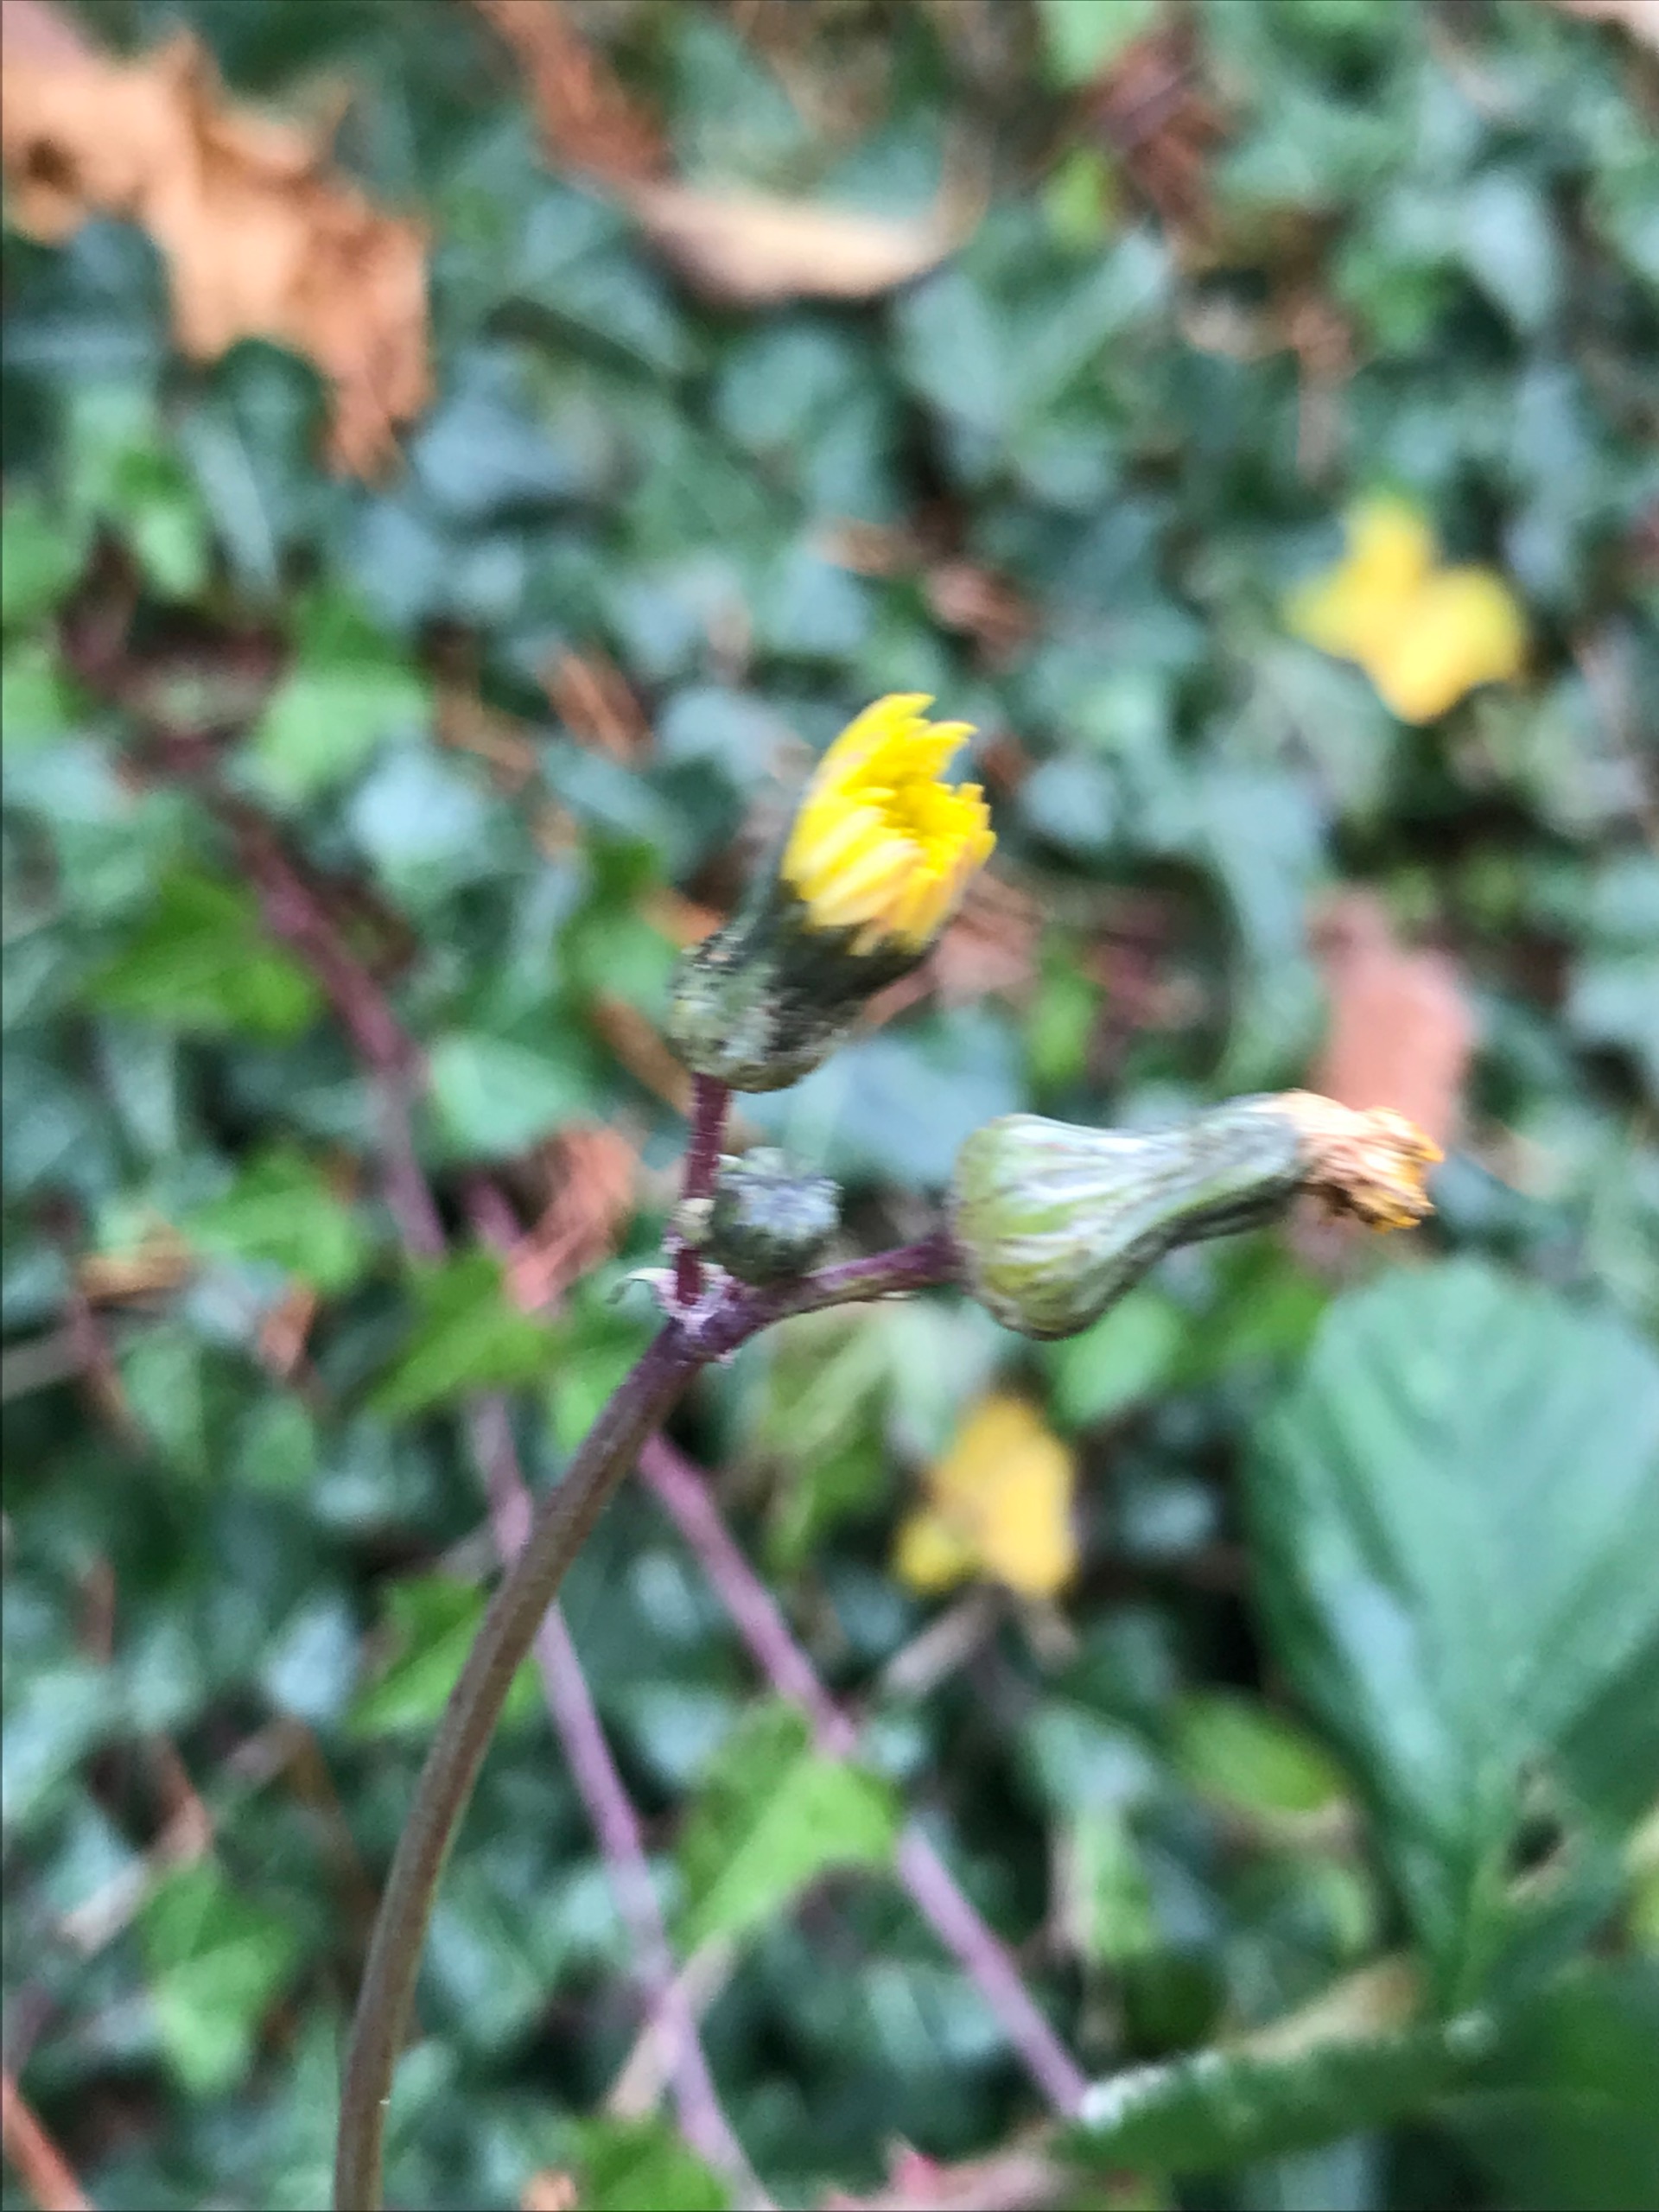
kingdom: Plantae
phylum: Tracheophyta
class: Magnoliopsida
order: Asterales
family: Asteraceae
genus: Sonchus
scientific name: Sonchus asper
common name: Ru svinemælk
